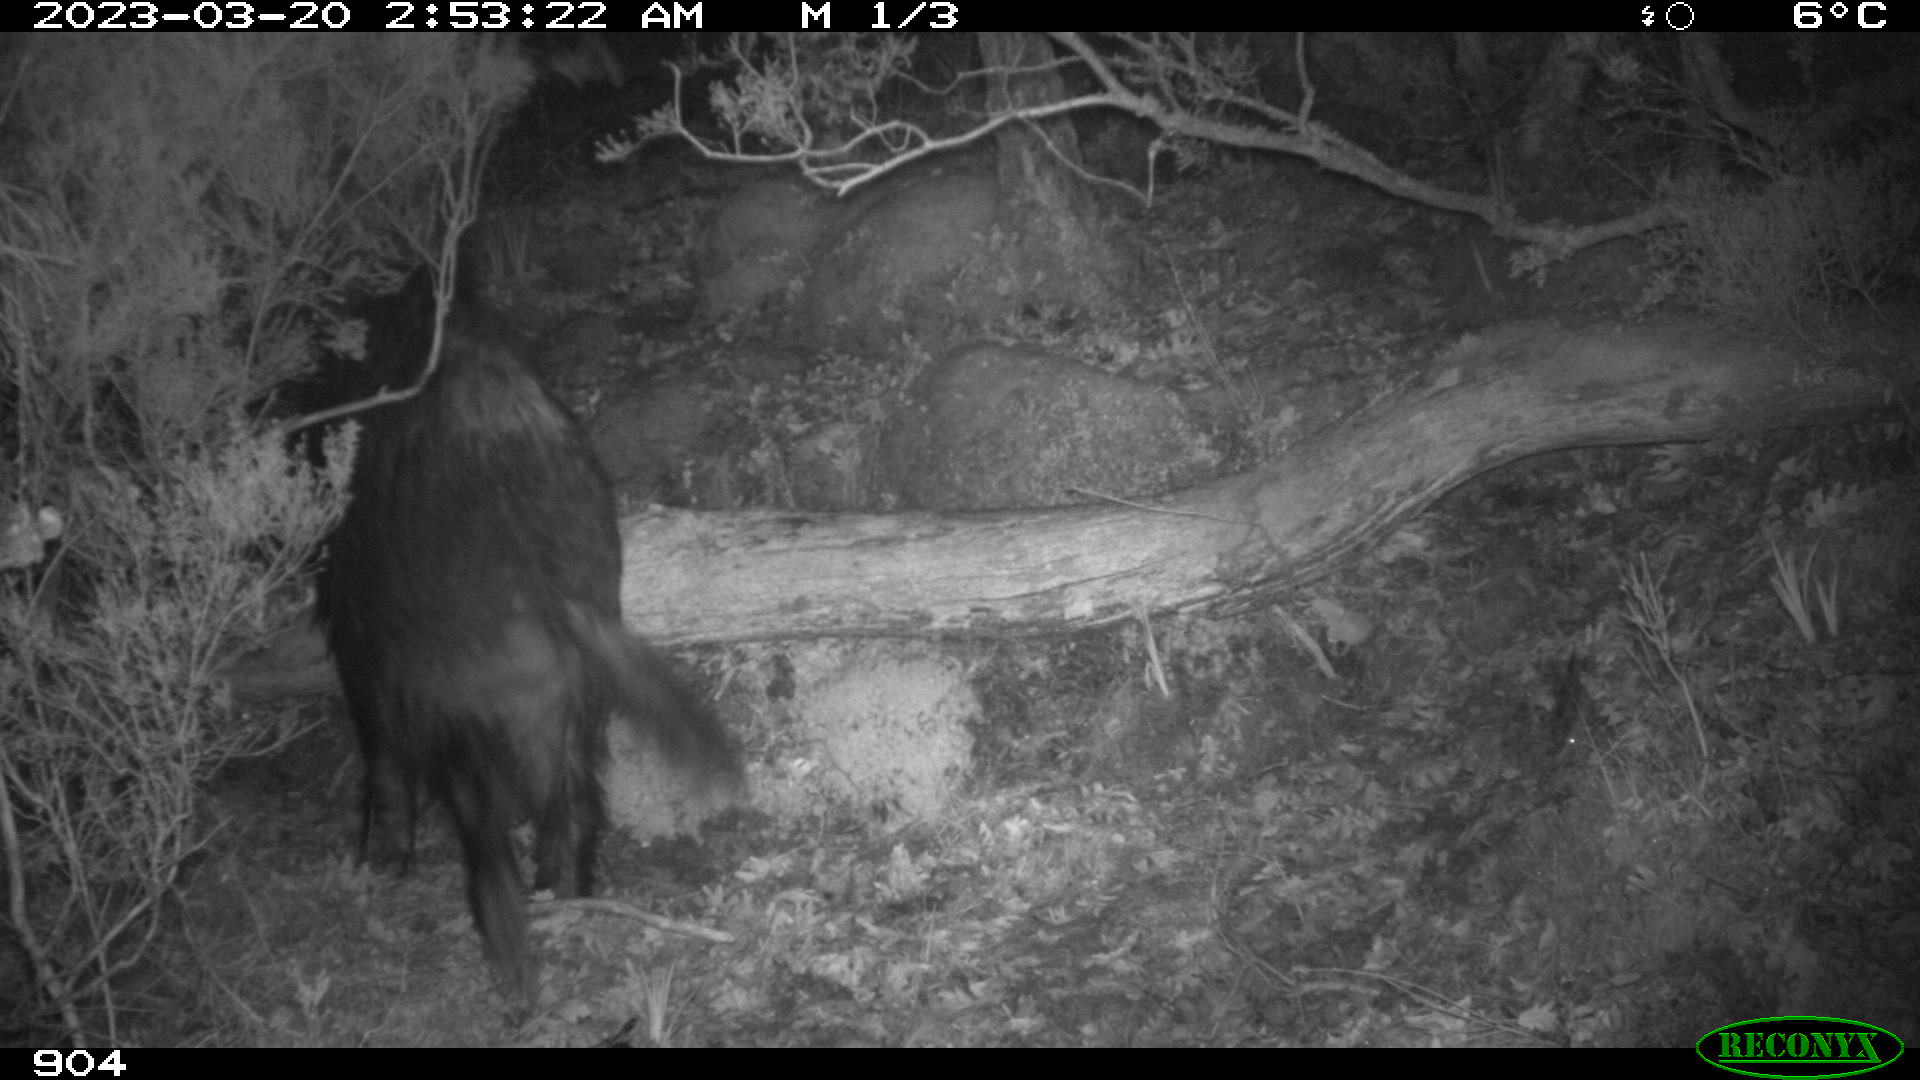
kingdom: Animalia
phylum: Chordata
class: Mammalia
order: Artiodactyla
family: Suidae
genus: Sus
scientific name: Sus scrofa
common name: Wild boar
